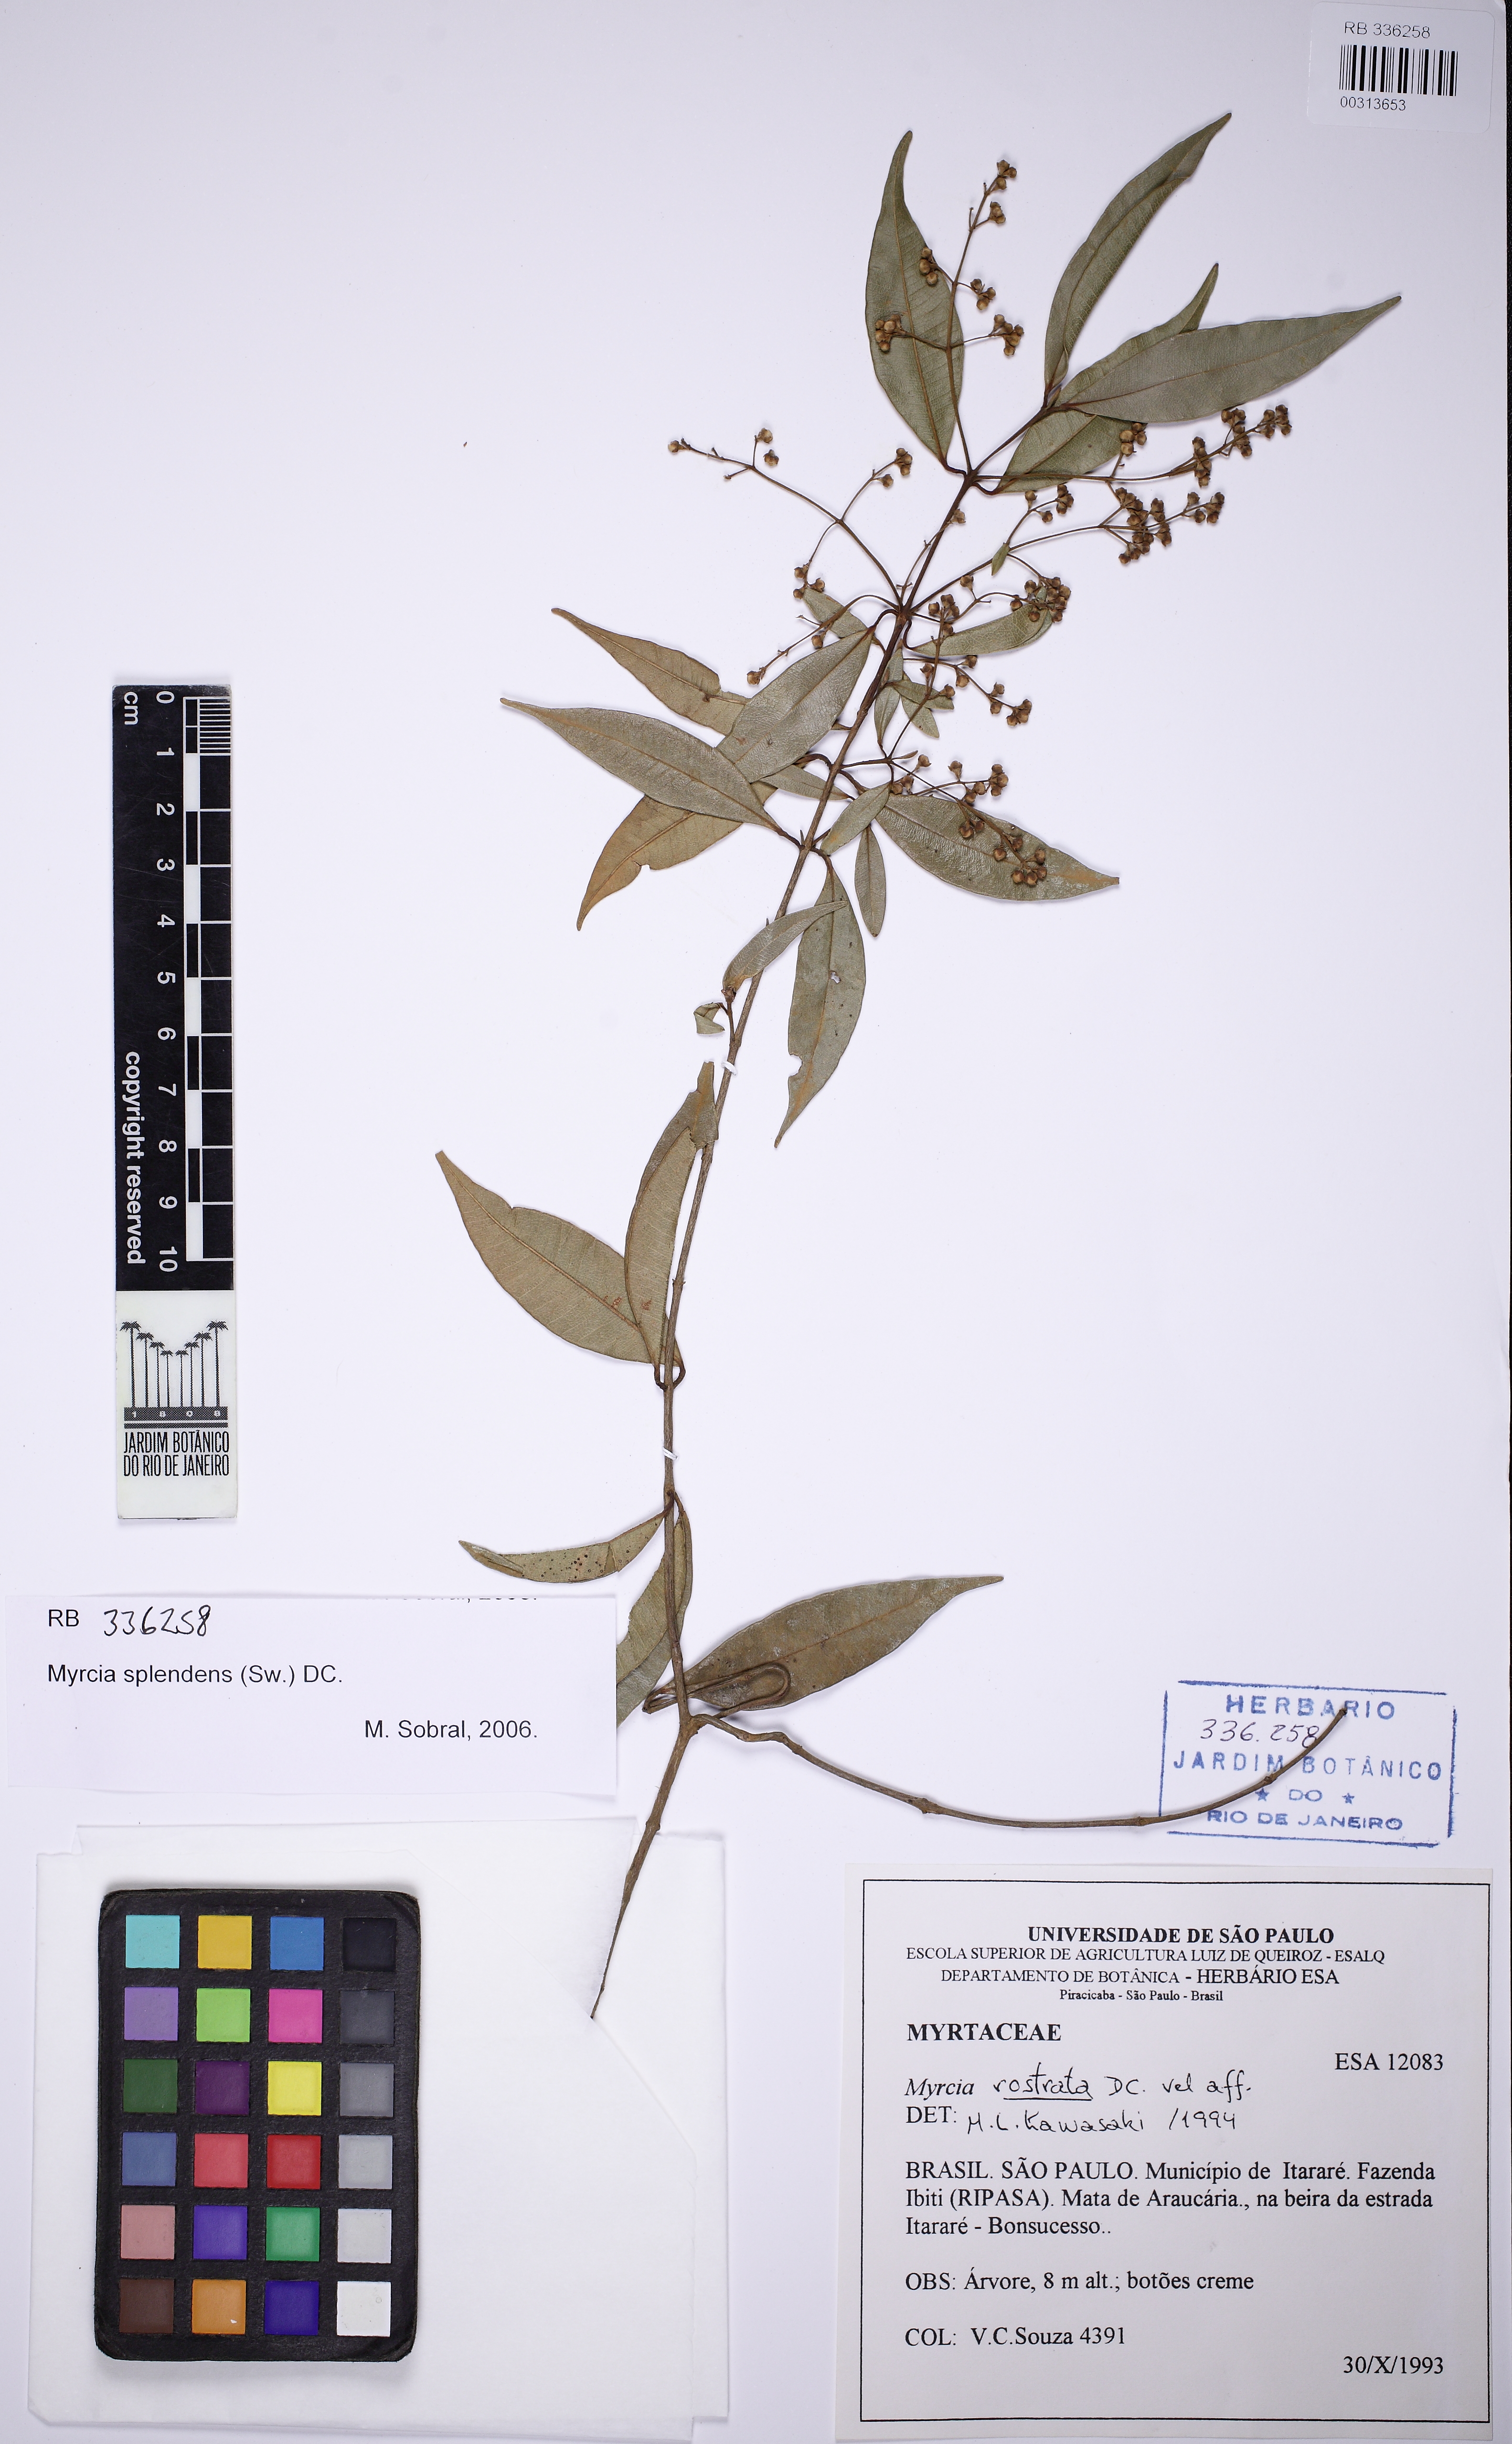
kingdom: Plantae
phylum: Tracheophyta
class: Magnoliopsida
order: Myrtales
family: Myrtaceae
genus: Myrcia
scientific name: Myrcia splendens
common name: Surinam cherry
